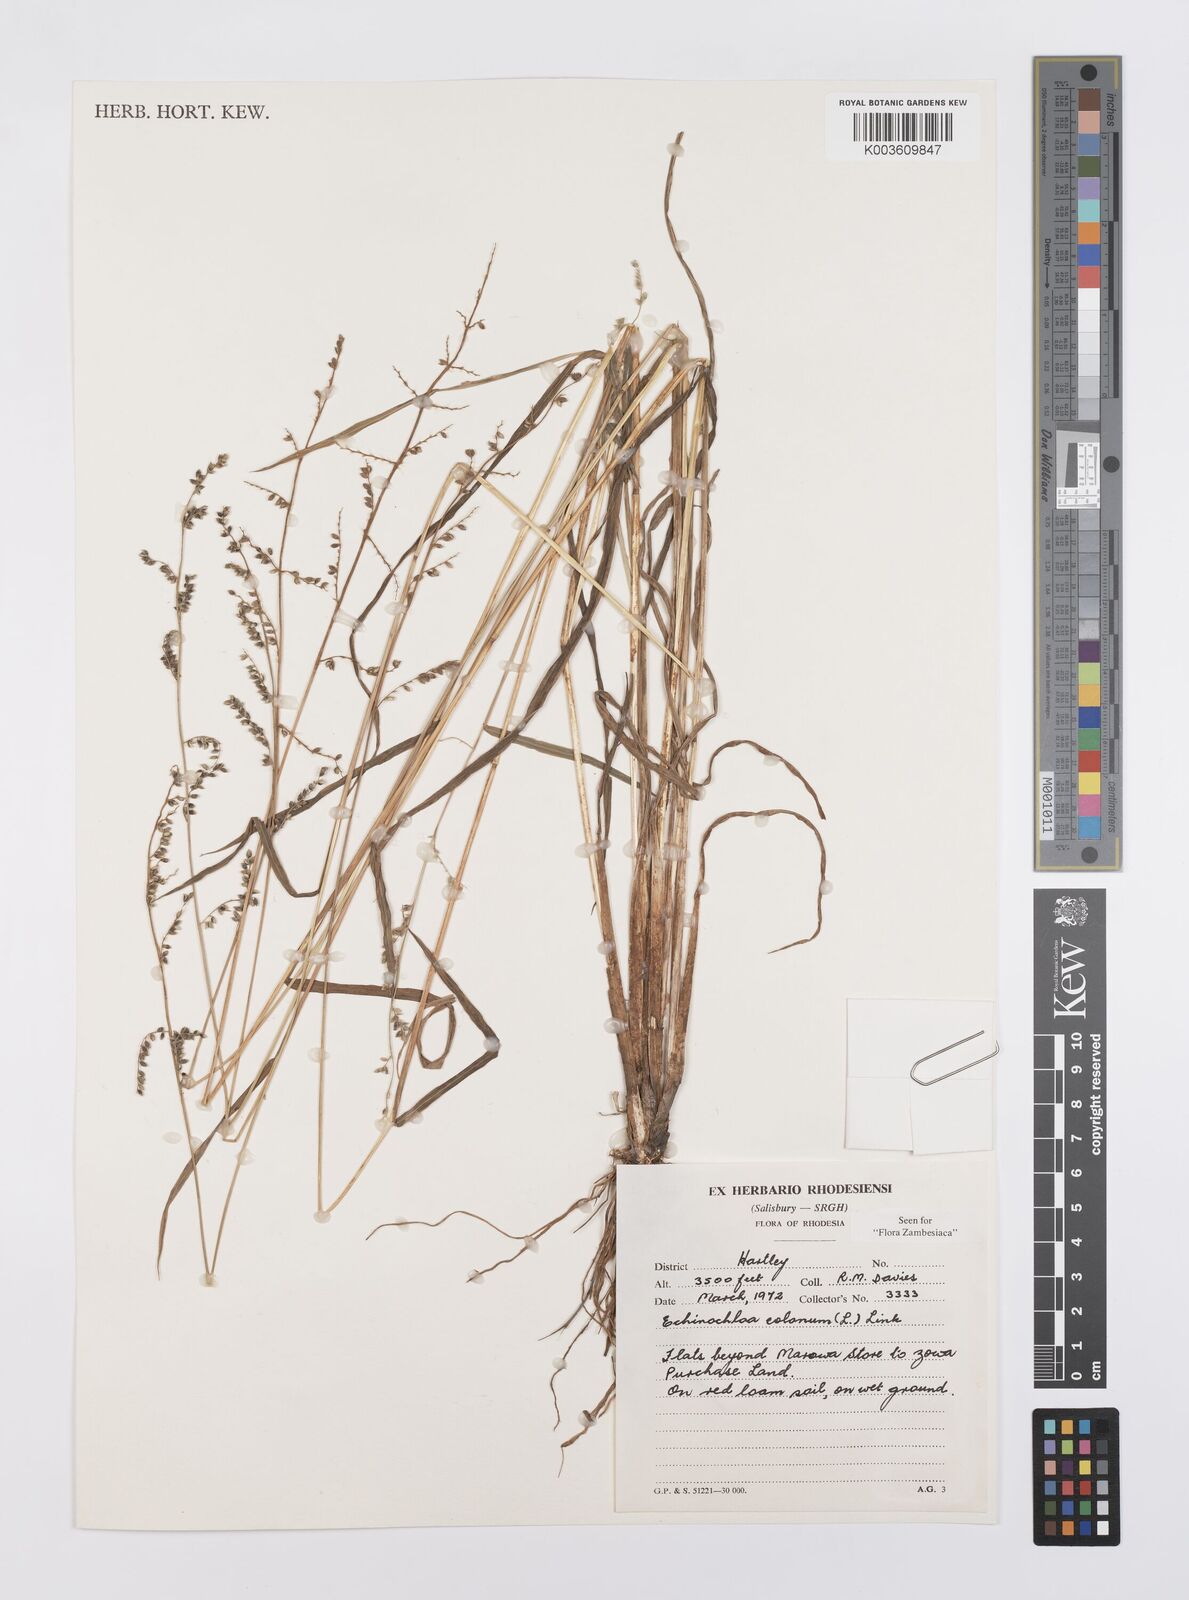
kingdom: Plantae
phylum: Tracheophyta
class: Liliopsida
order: Poales
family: Poaceae
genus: Echinochloa
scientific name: Echinochloa colonum
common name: Jungle rice
